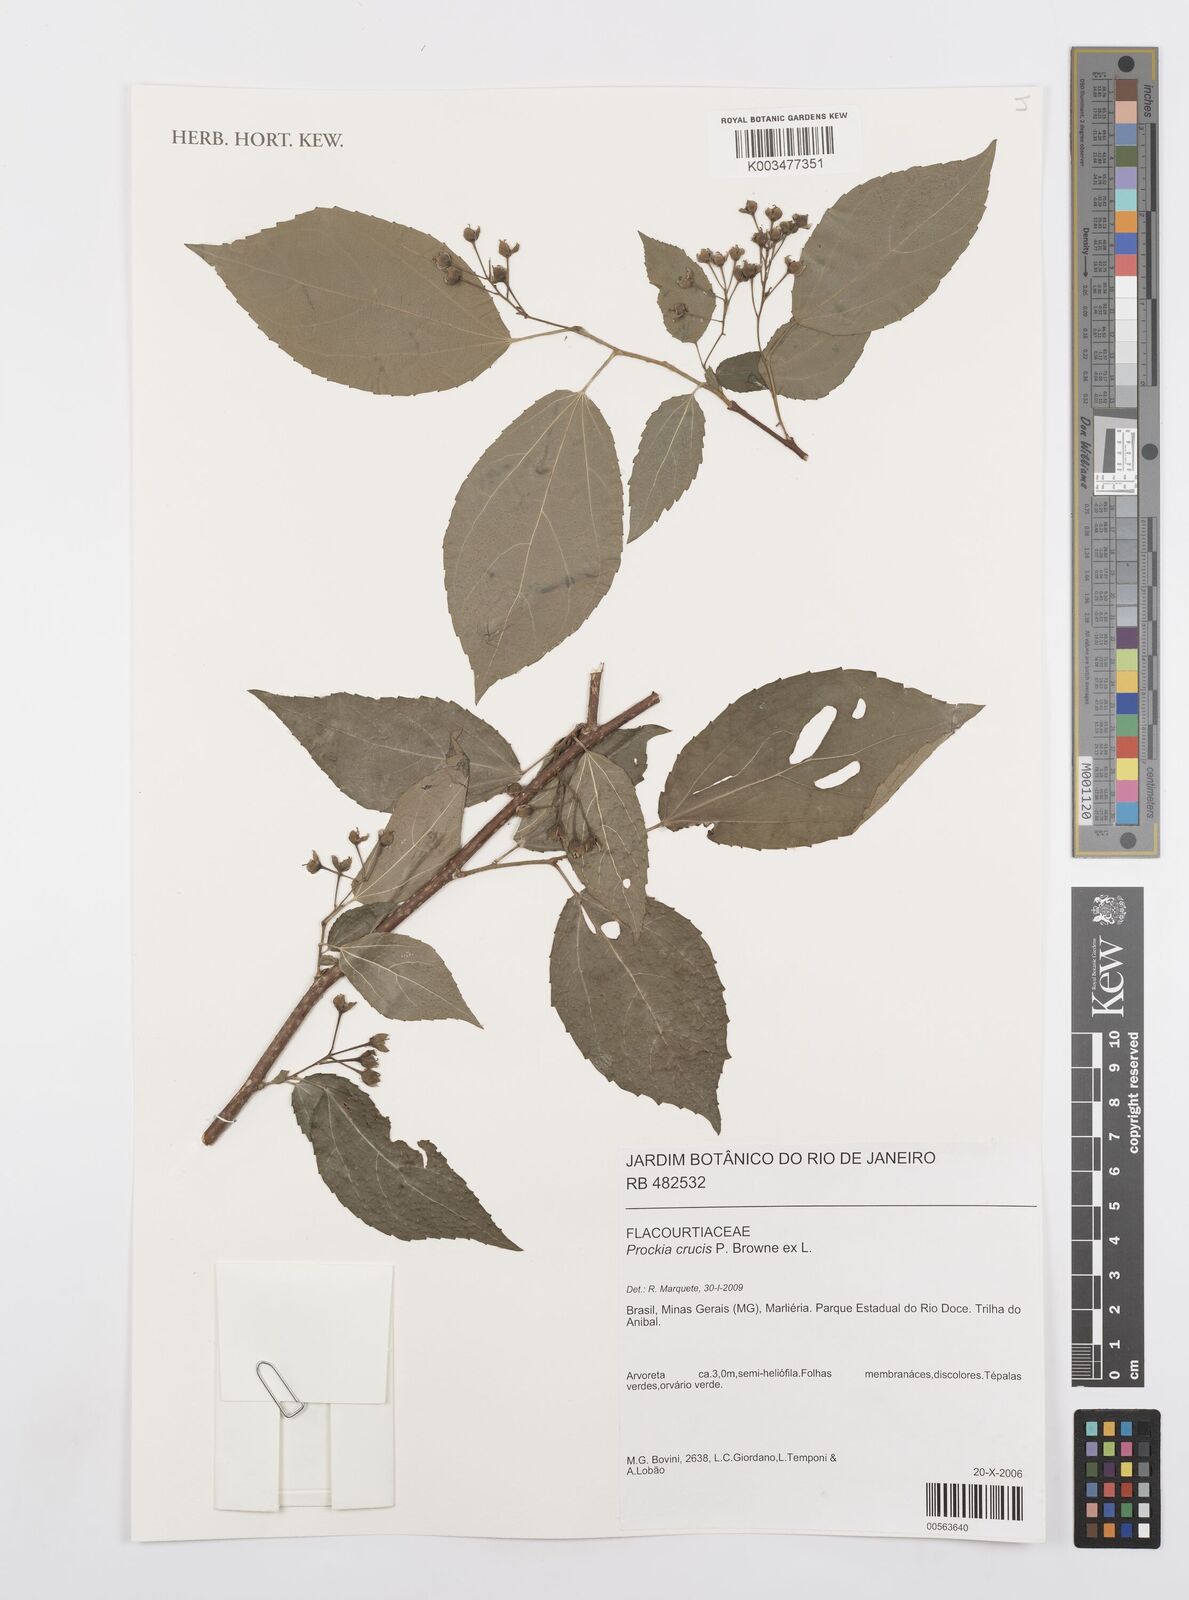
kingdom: Plantae
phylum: Tracheophyta
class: Magnoliopsida
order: Malpighiales
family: Salicaceae
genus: Prockia
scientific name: Prockia crucis
